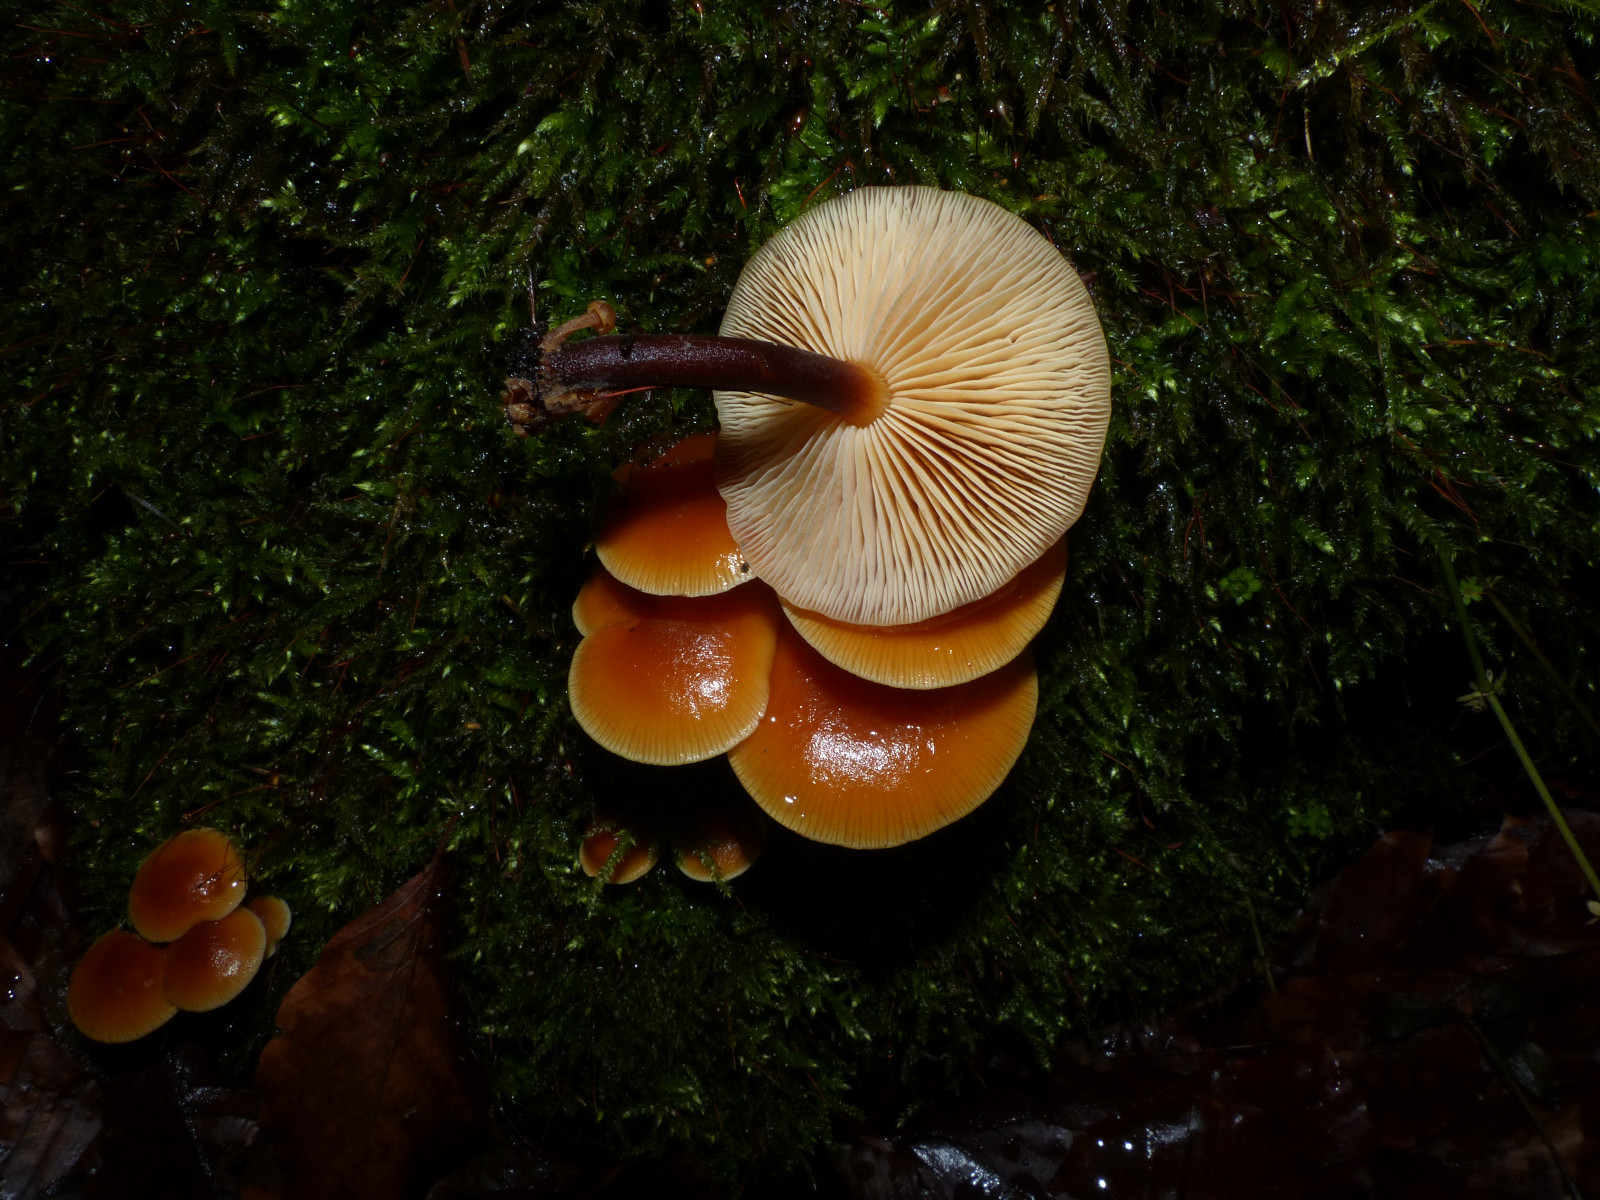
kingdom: Fungi
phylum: Basidiomycota
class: Agaricomycetes
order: Agaricales
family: Physalacriaceae
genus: Flammulina
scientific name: Flammulina velutipes
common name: gul fløjlsfod
